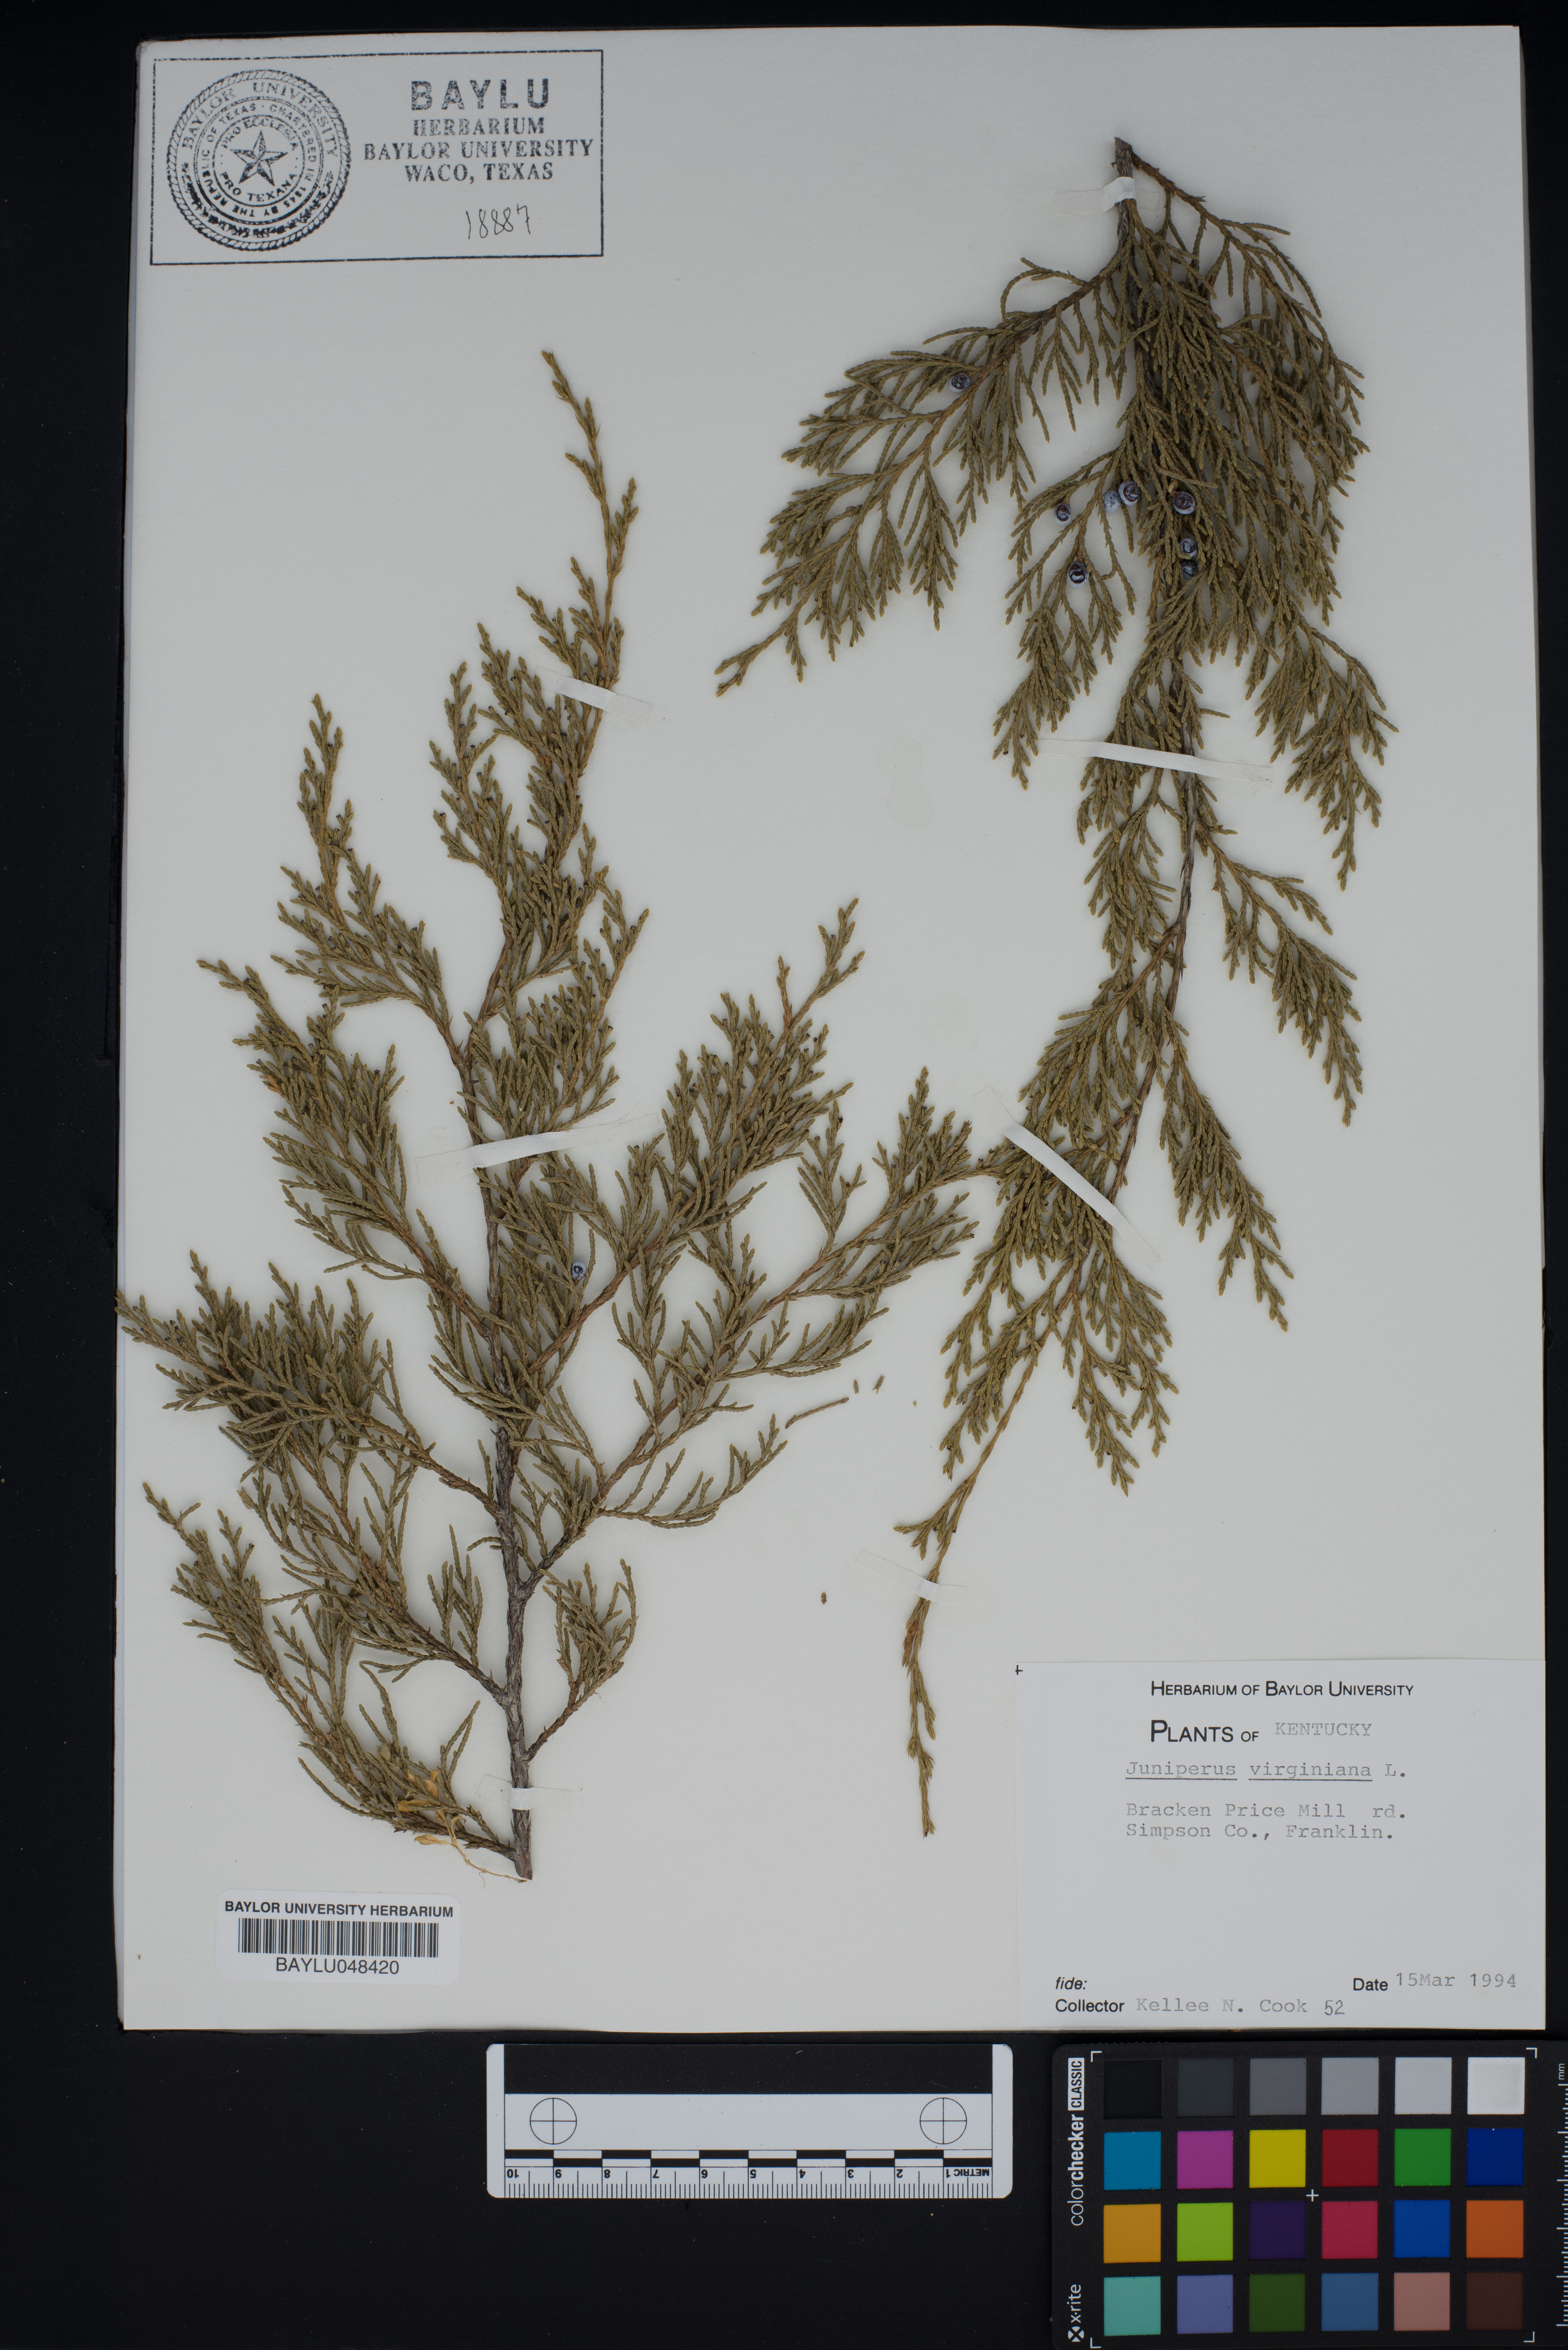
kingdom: Plantae
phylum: Tracheophyta
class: Pinopsida
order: Pinales
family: Cupressaceae
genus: Juniperus
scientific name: Juniperus virginiana
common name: Red juniper
